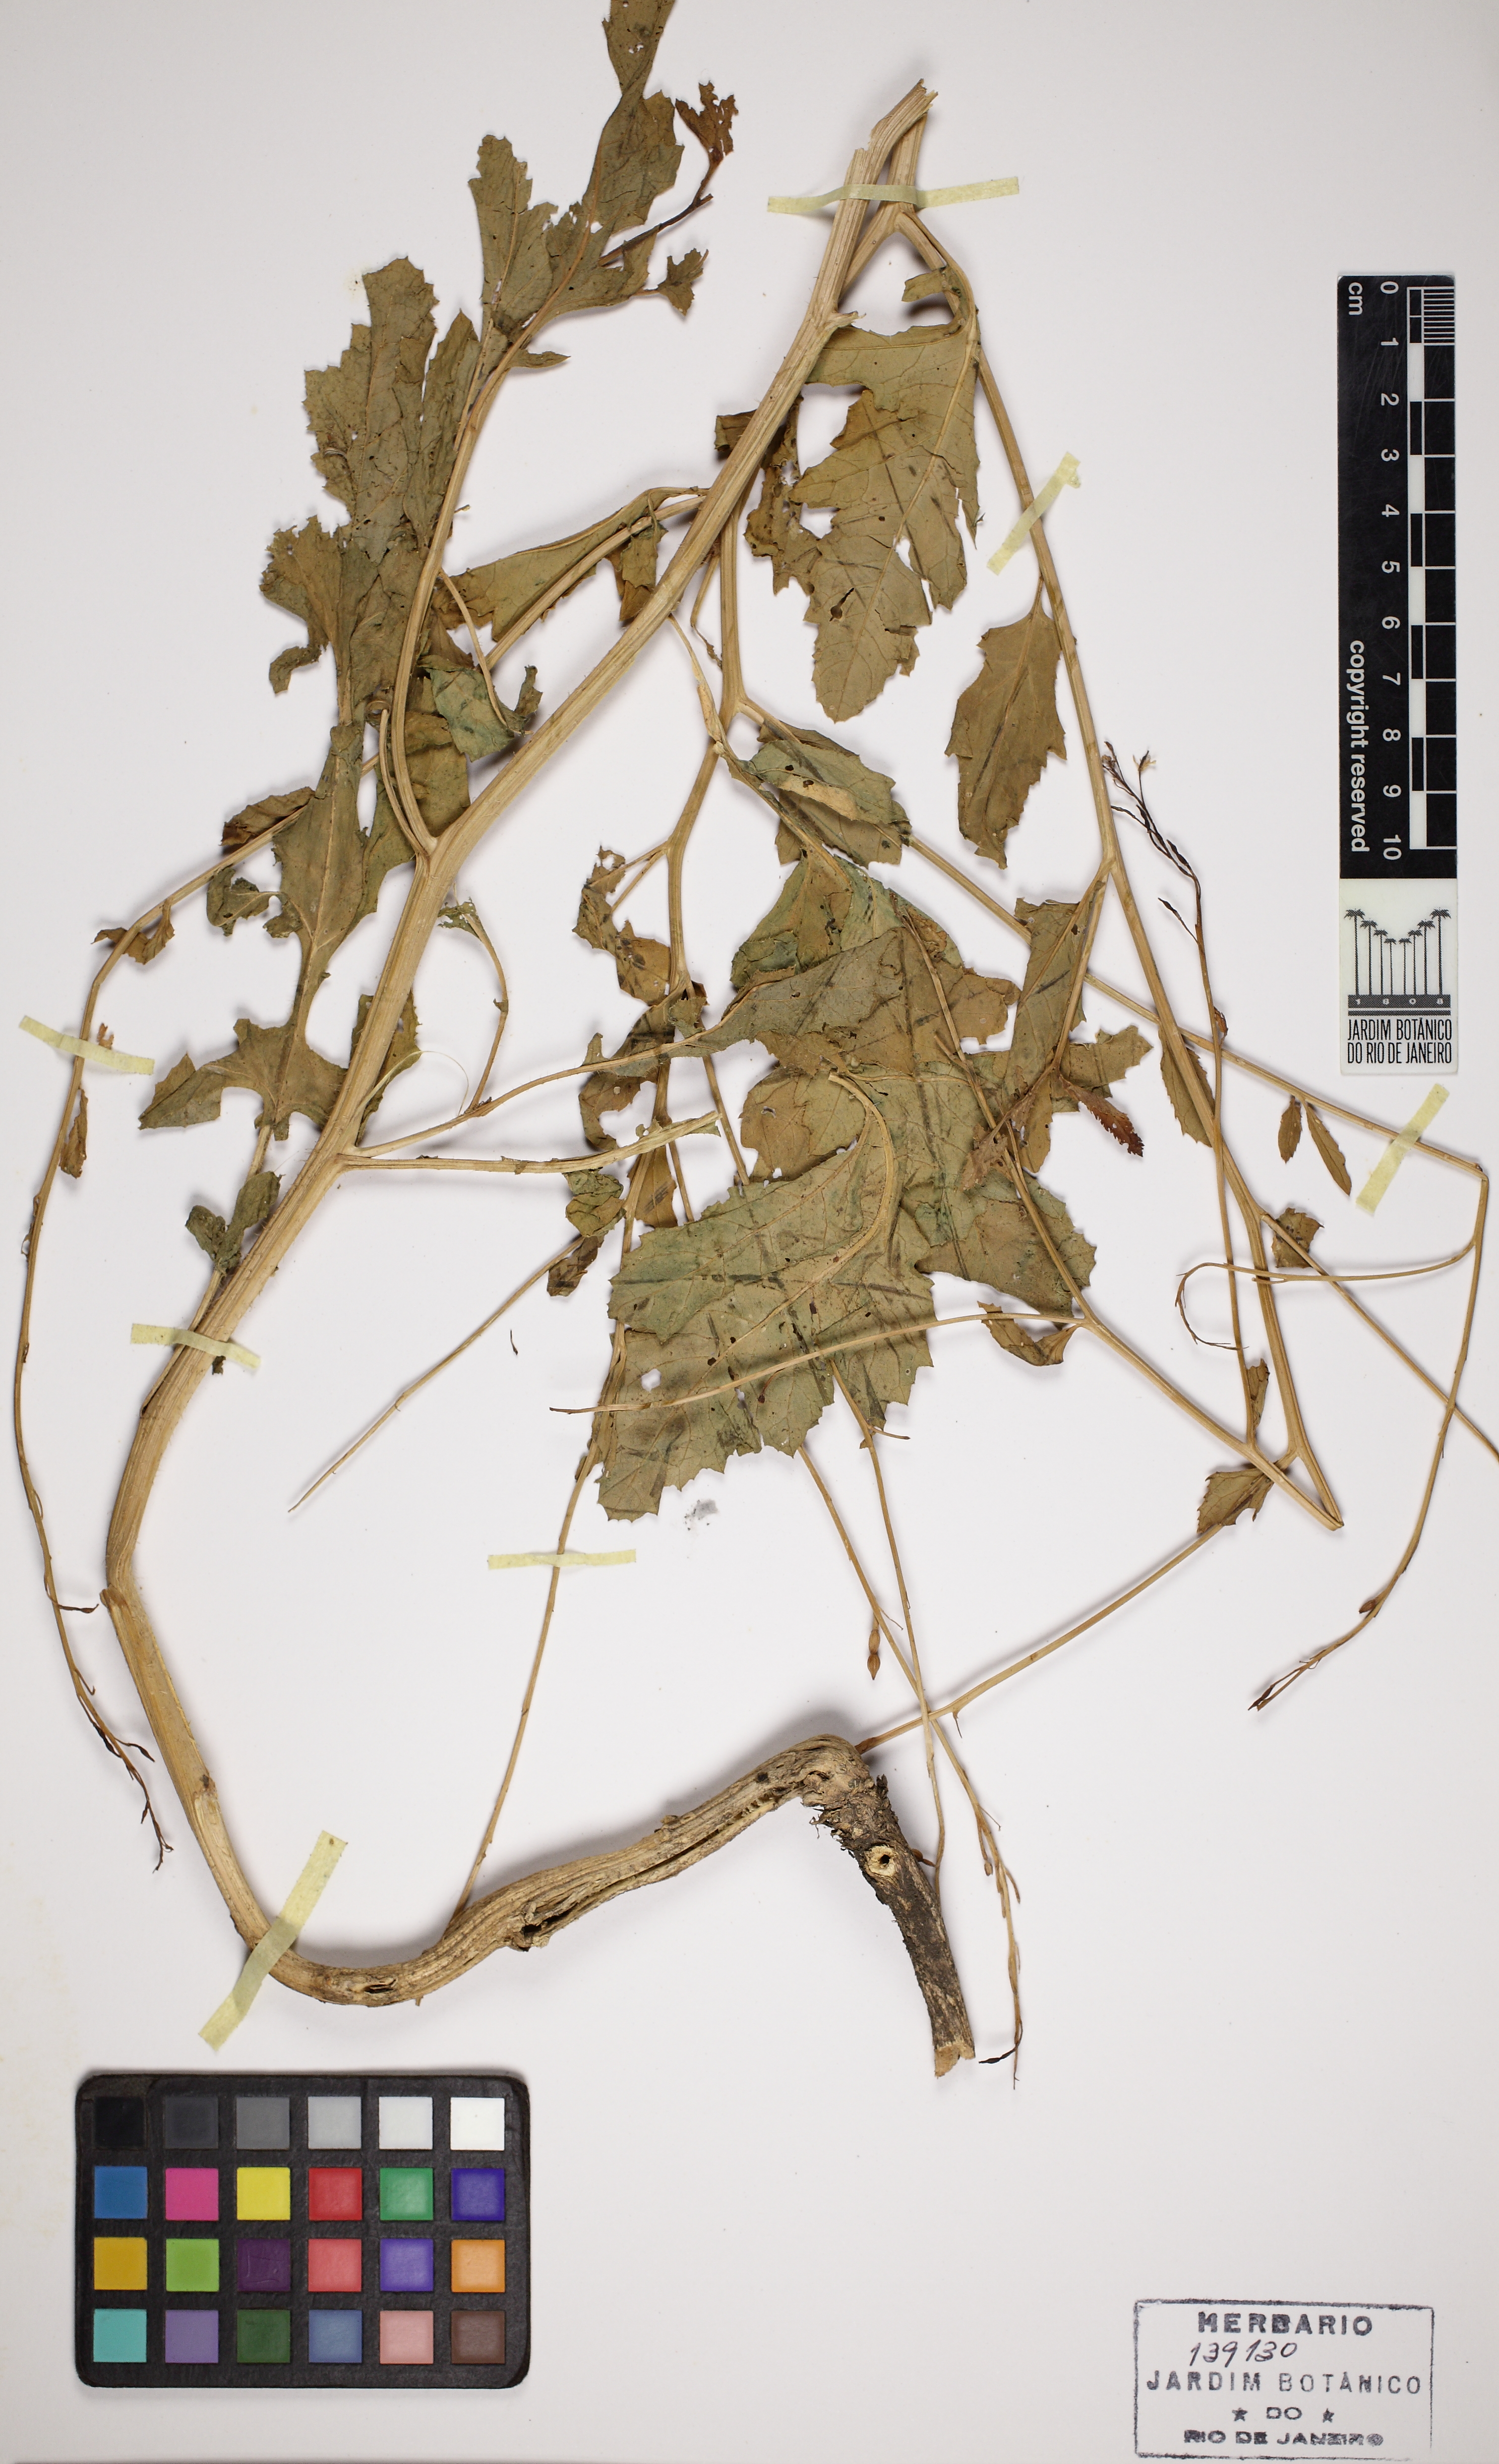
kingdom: Plantae
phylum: Tracheophyta
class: Magnoliopsida
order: Brassicales
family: Brassicaceae
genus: Rapistrum
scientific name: Rapistrum perenne
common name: Steppe cabbage
